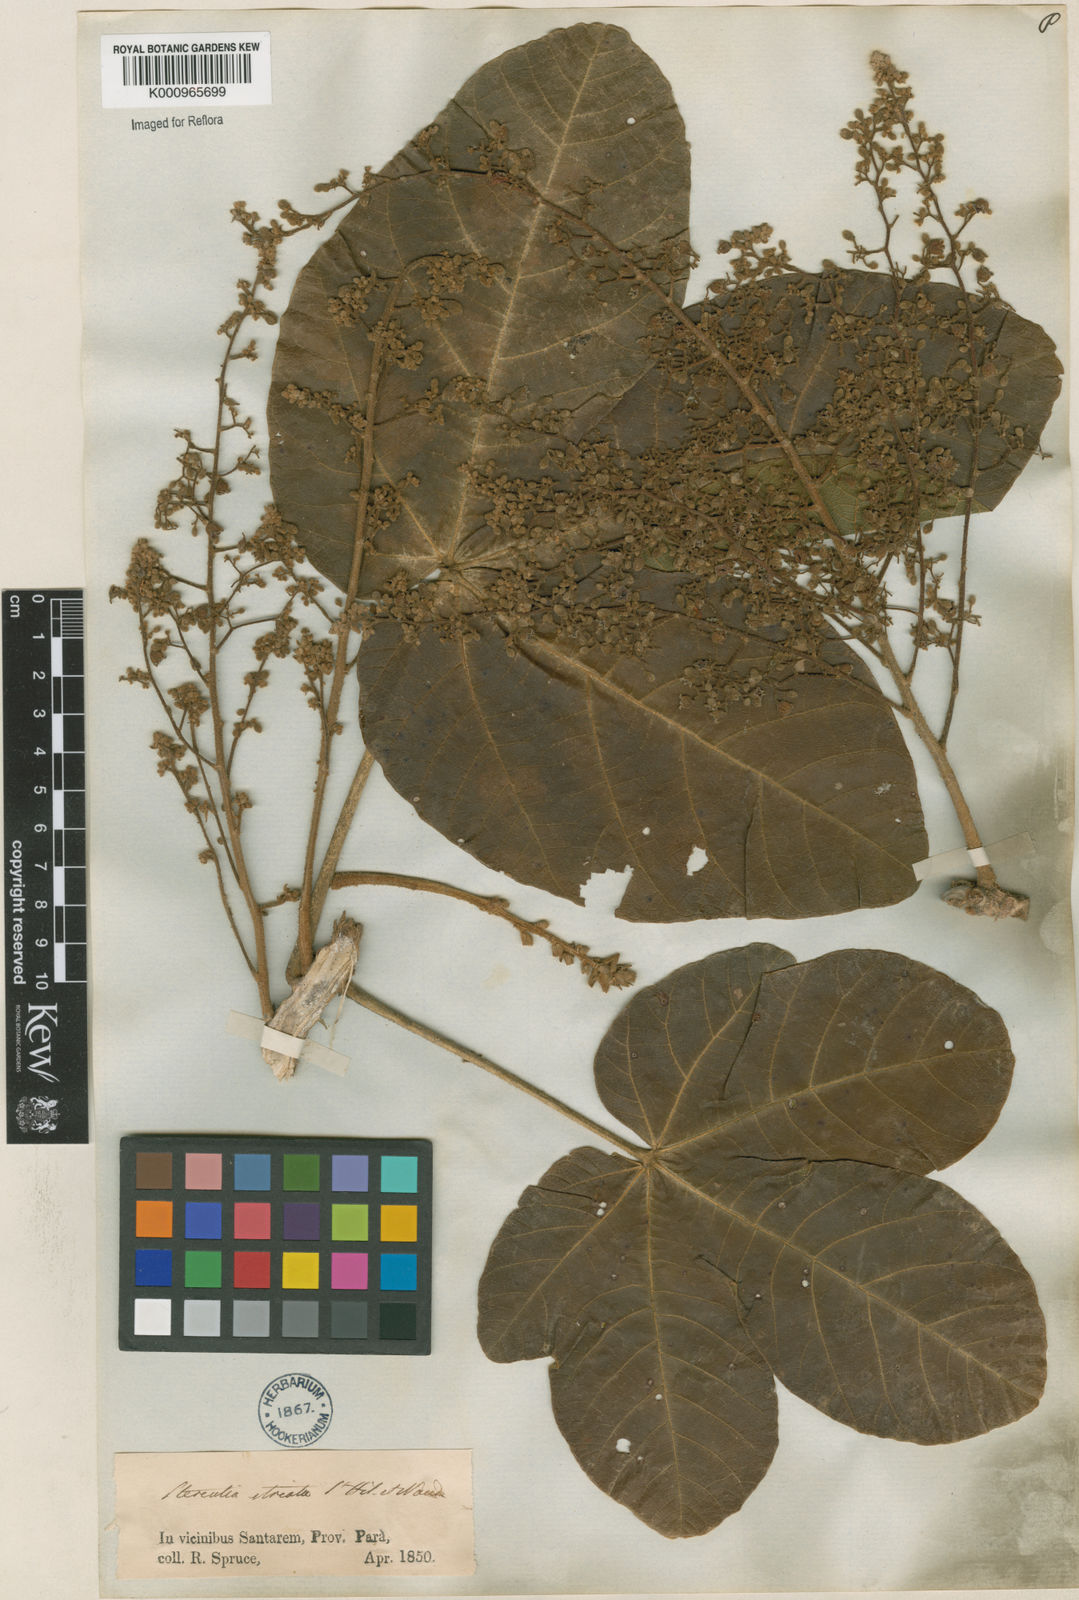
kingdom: Plantae
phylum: Tracheophyta
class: Magnoliopsida
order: Malvales
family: Malvaceae
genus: Sterculia
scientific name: Sterculia striata
